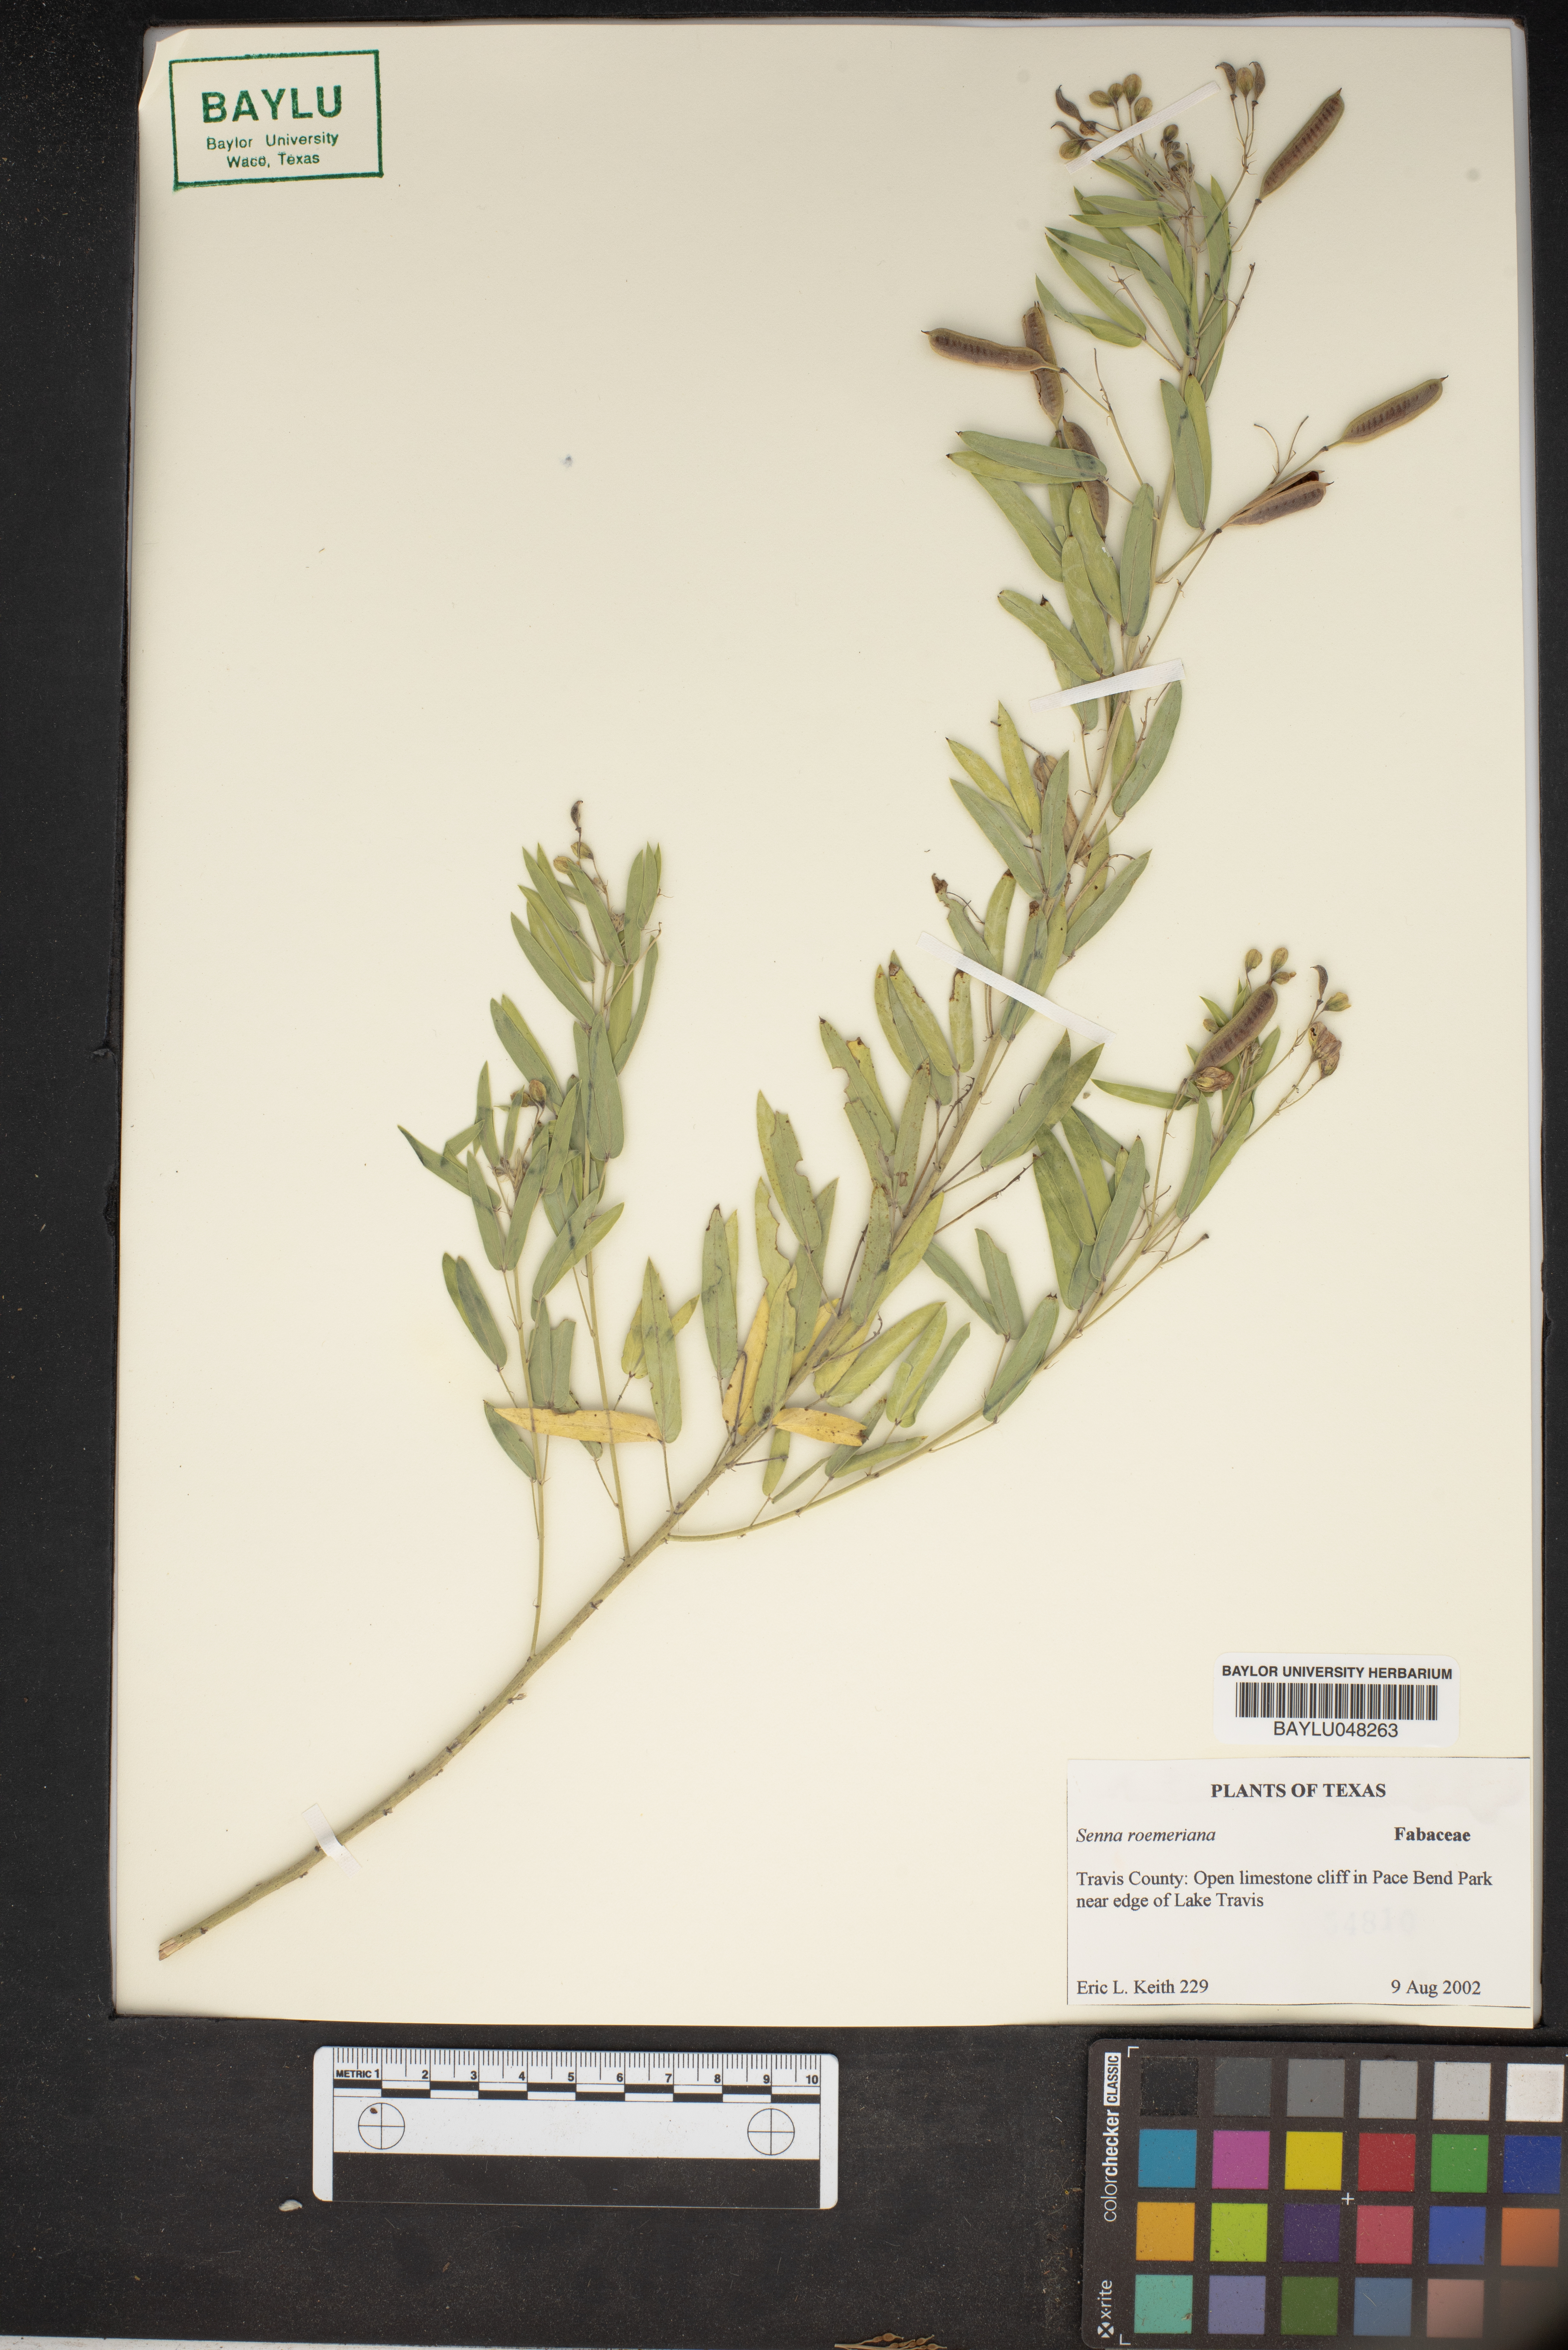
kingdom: Plantae
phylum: Tracheophyta
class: Magnoliopsida
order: Fabales
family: Fabaceae
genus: Senna
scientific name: Senna roemeriana
